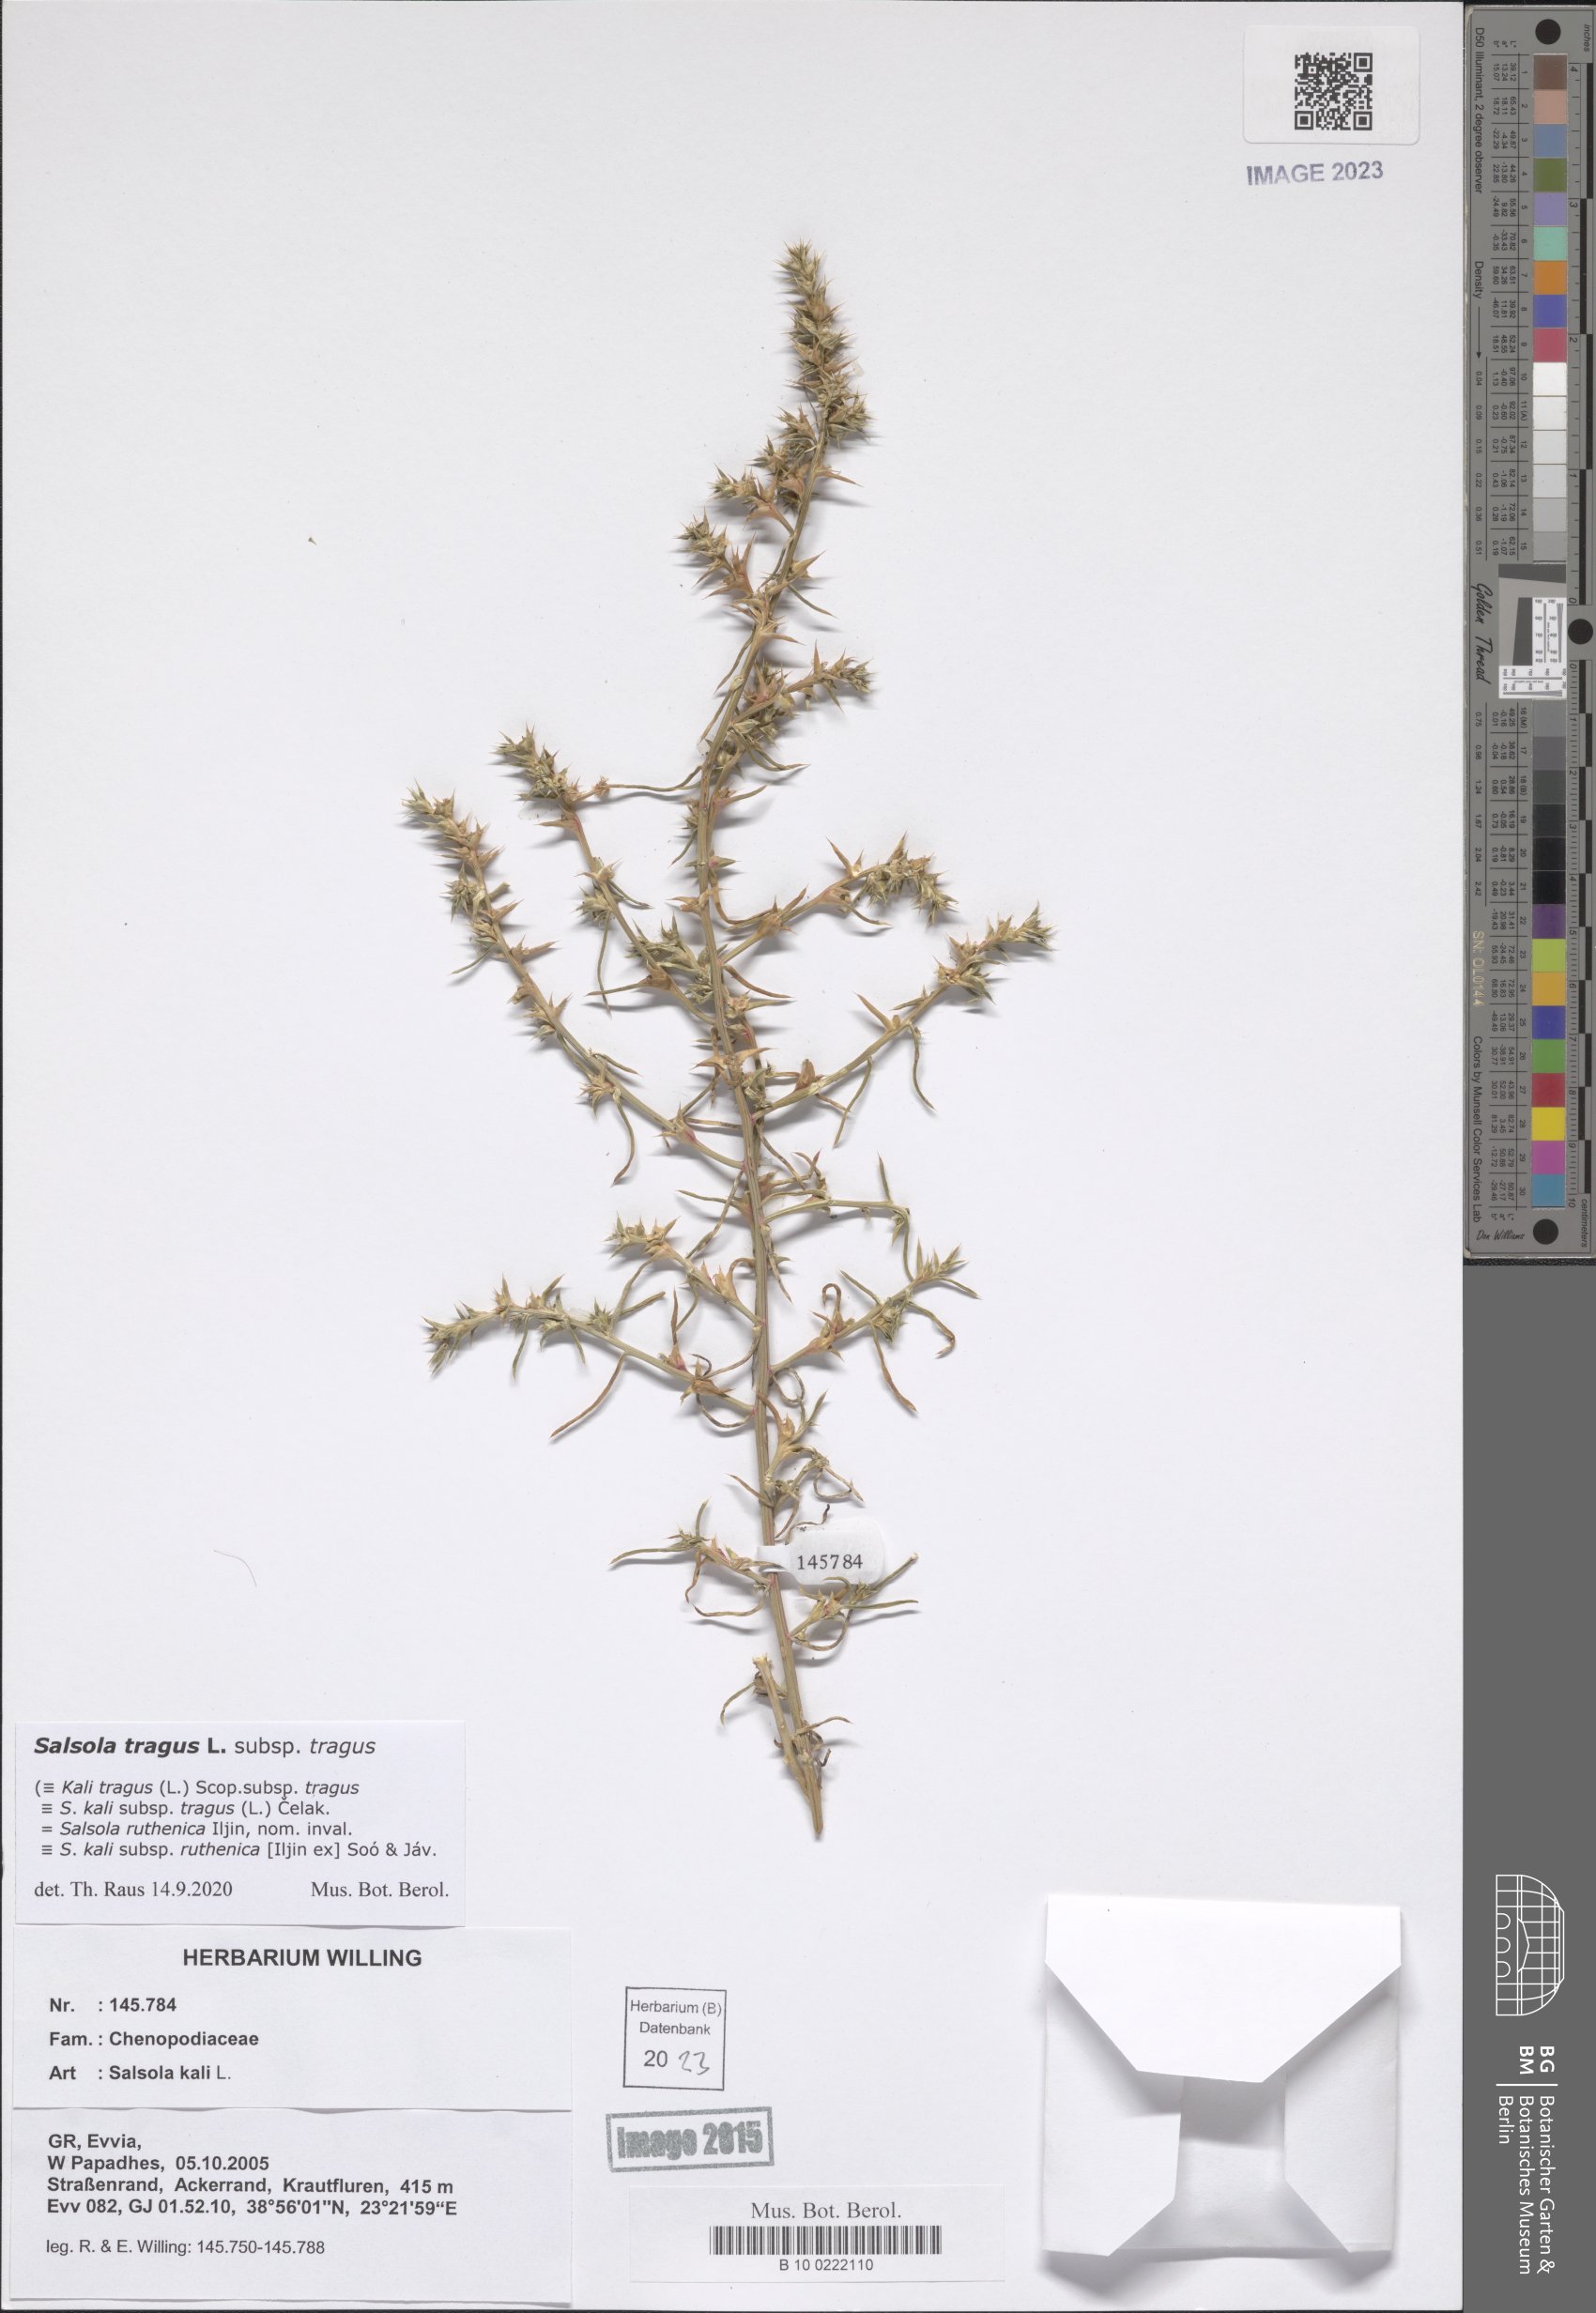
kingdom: Plantae
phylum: Tracheophyta
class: Magnoliopsida
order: Caryophyllales
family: Amaranthaceae
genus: Salsola
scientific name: Salsola tragus
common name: Prickly russian thistle
